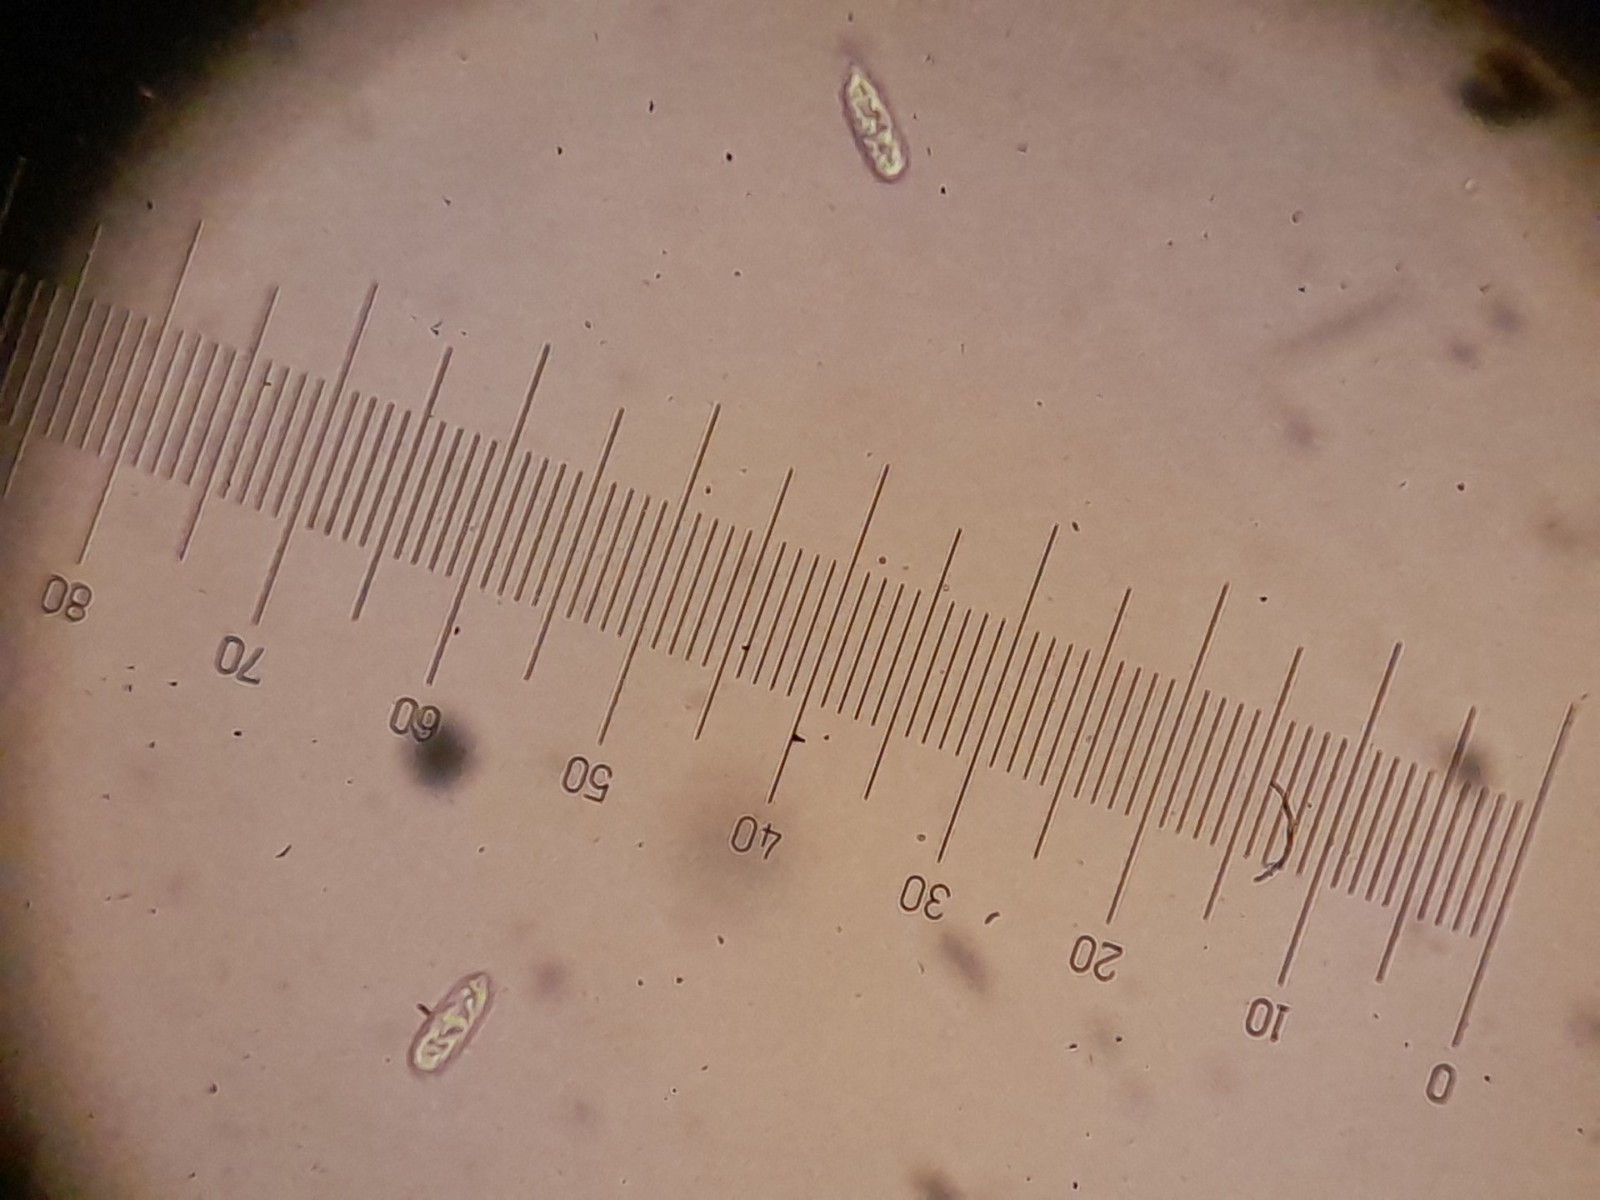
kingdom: Fungi
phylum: Ascomycota
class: Leotiomycetes
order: Helotiales
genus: Cryptocline
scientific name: Cryptocline phacidiella
